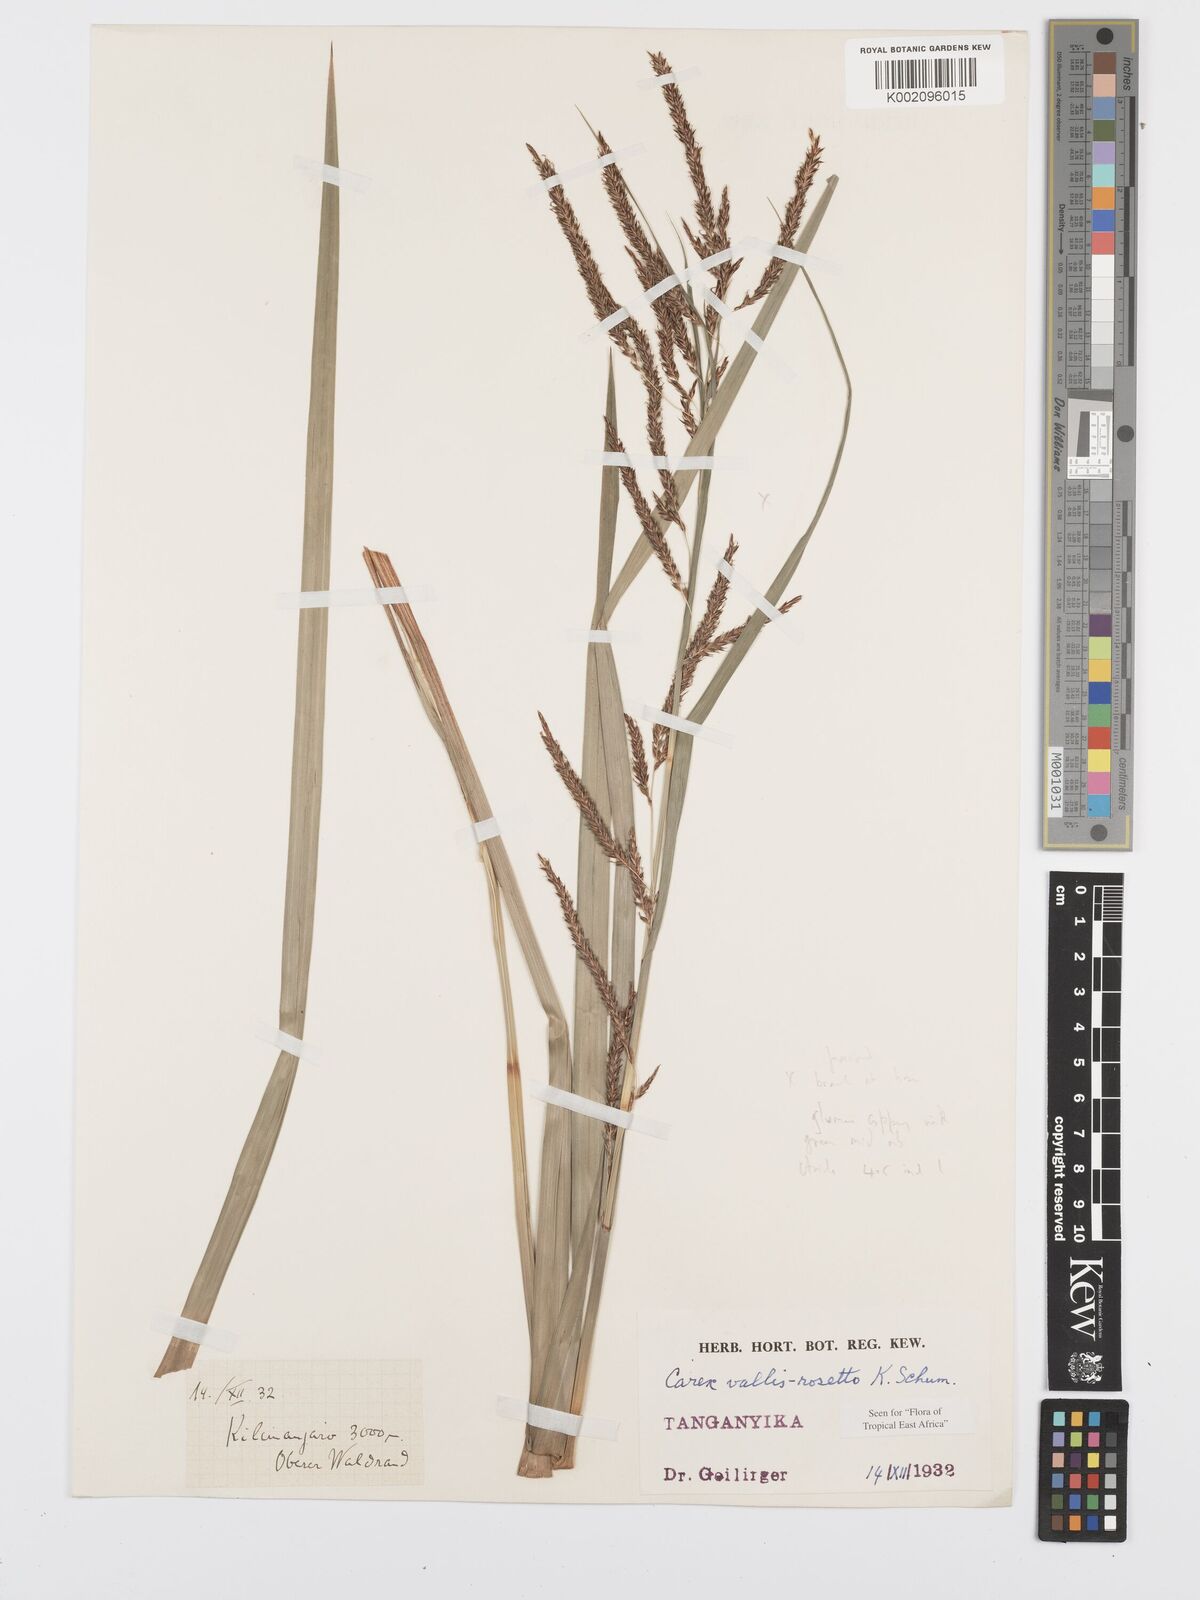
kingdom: Plantae
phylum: Tracheophyta
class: Liliopsida
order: Poales
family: Cyperaceae
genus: Carex
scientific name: Carex vallis-rosetto
